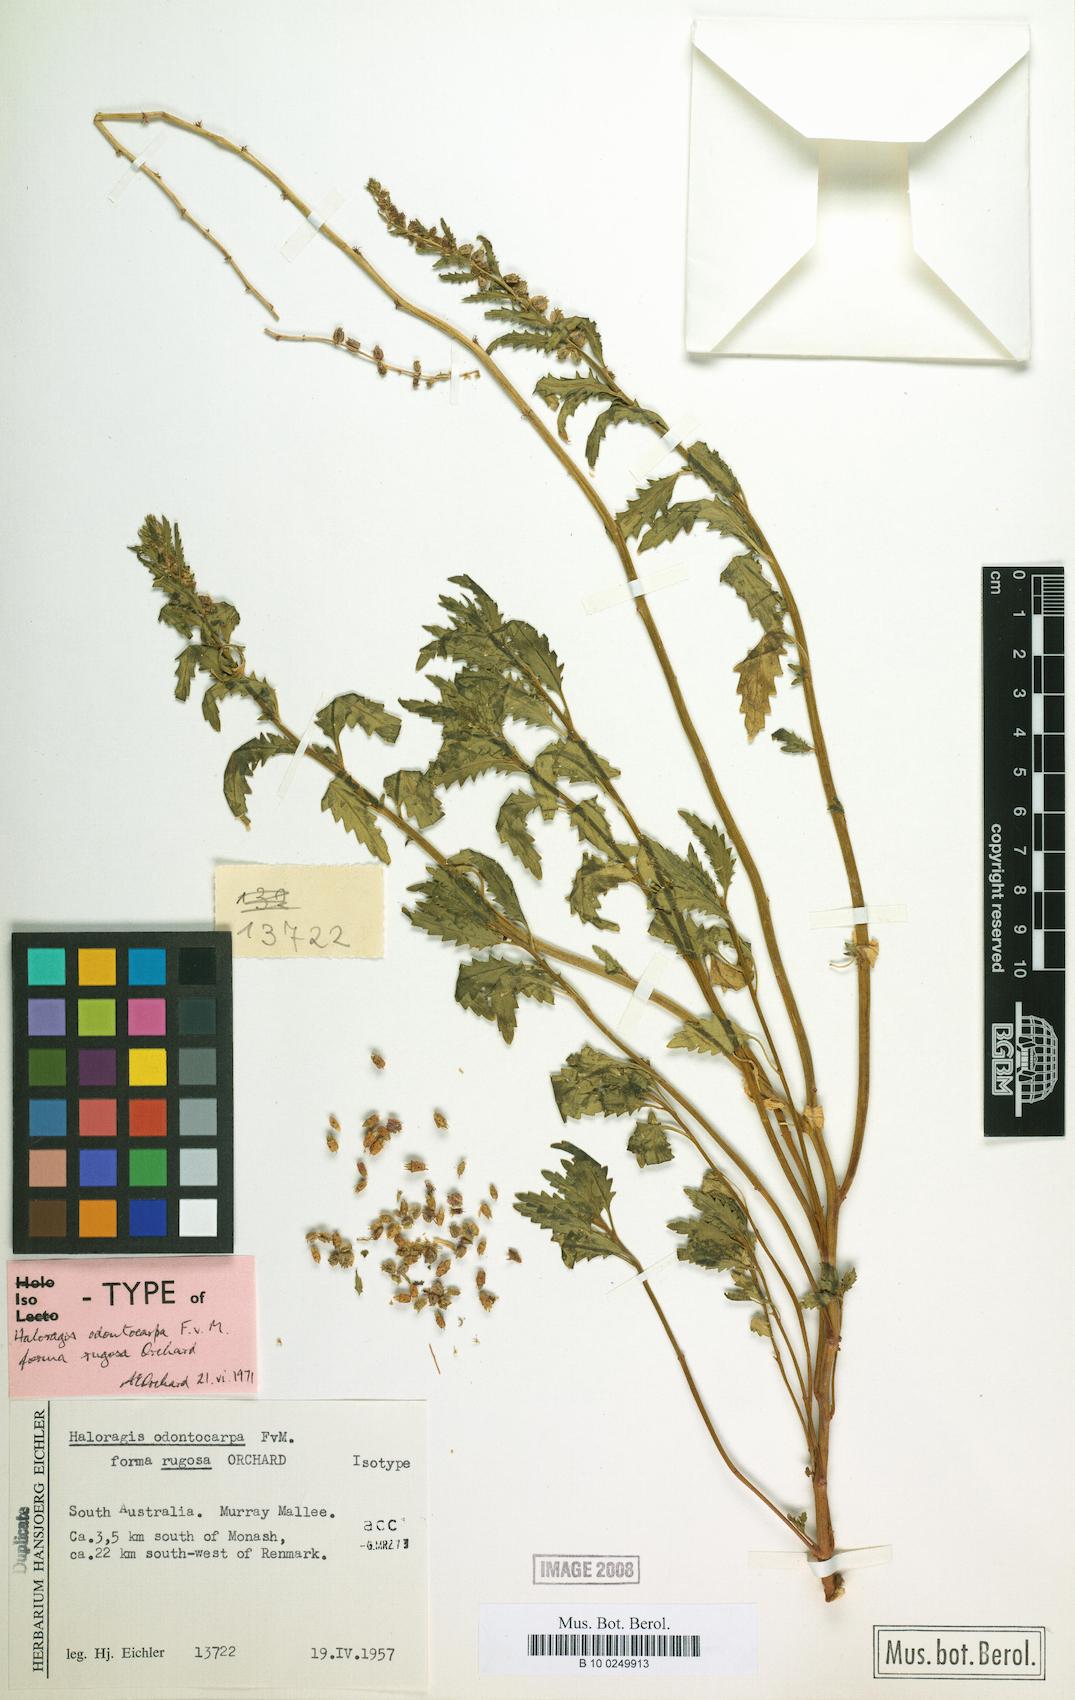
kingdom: Plantae
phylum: Tracheophyta
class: Magnoliopsida
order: Saxifragales
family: Haloragaceae
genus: Haloragis
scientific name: Haloragis odontocarpa
